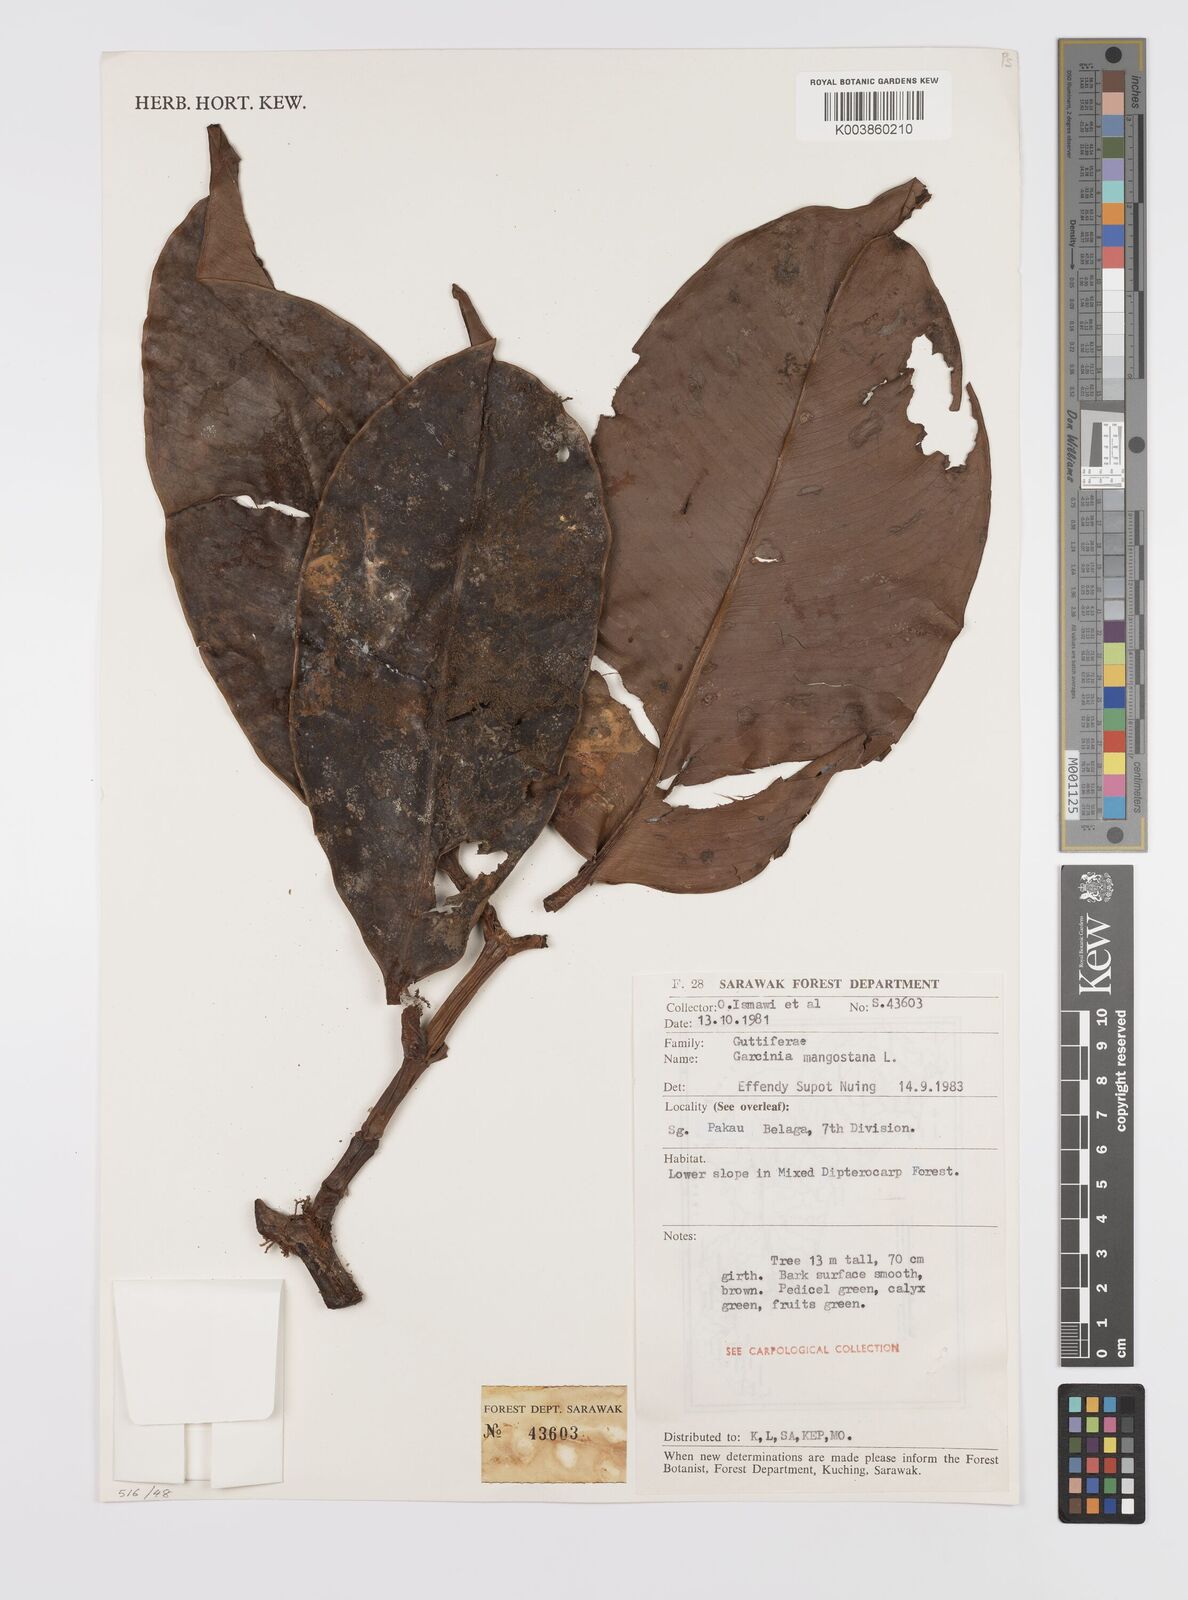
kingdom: Plantae
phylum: Tracheophyta
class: Magnoliopsida
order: Malpighiales
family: Clusiaceae
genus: Garcinia
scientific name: Garcinia mangostana
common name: Mangosteen
